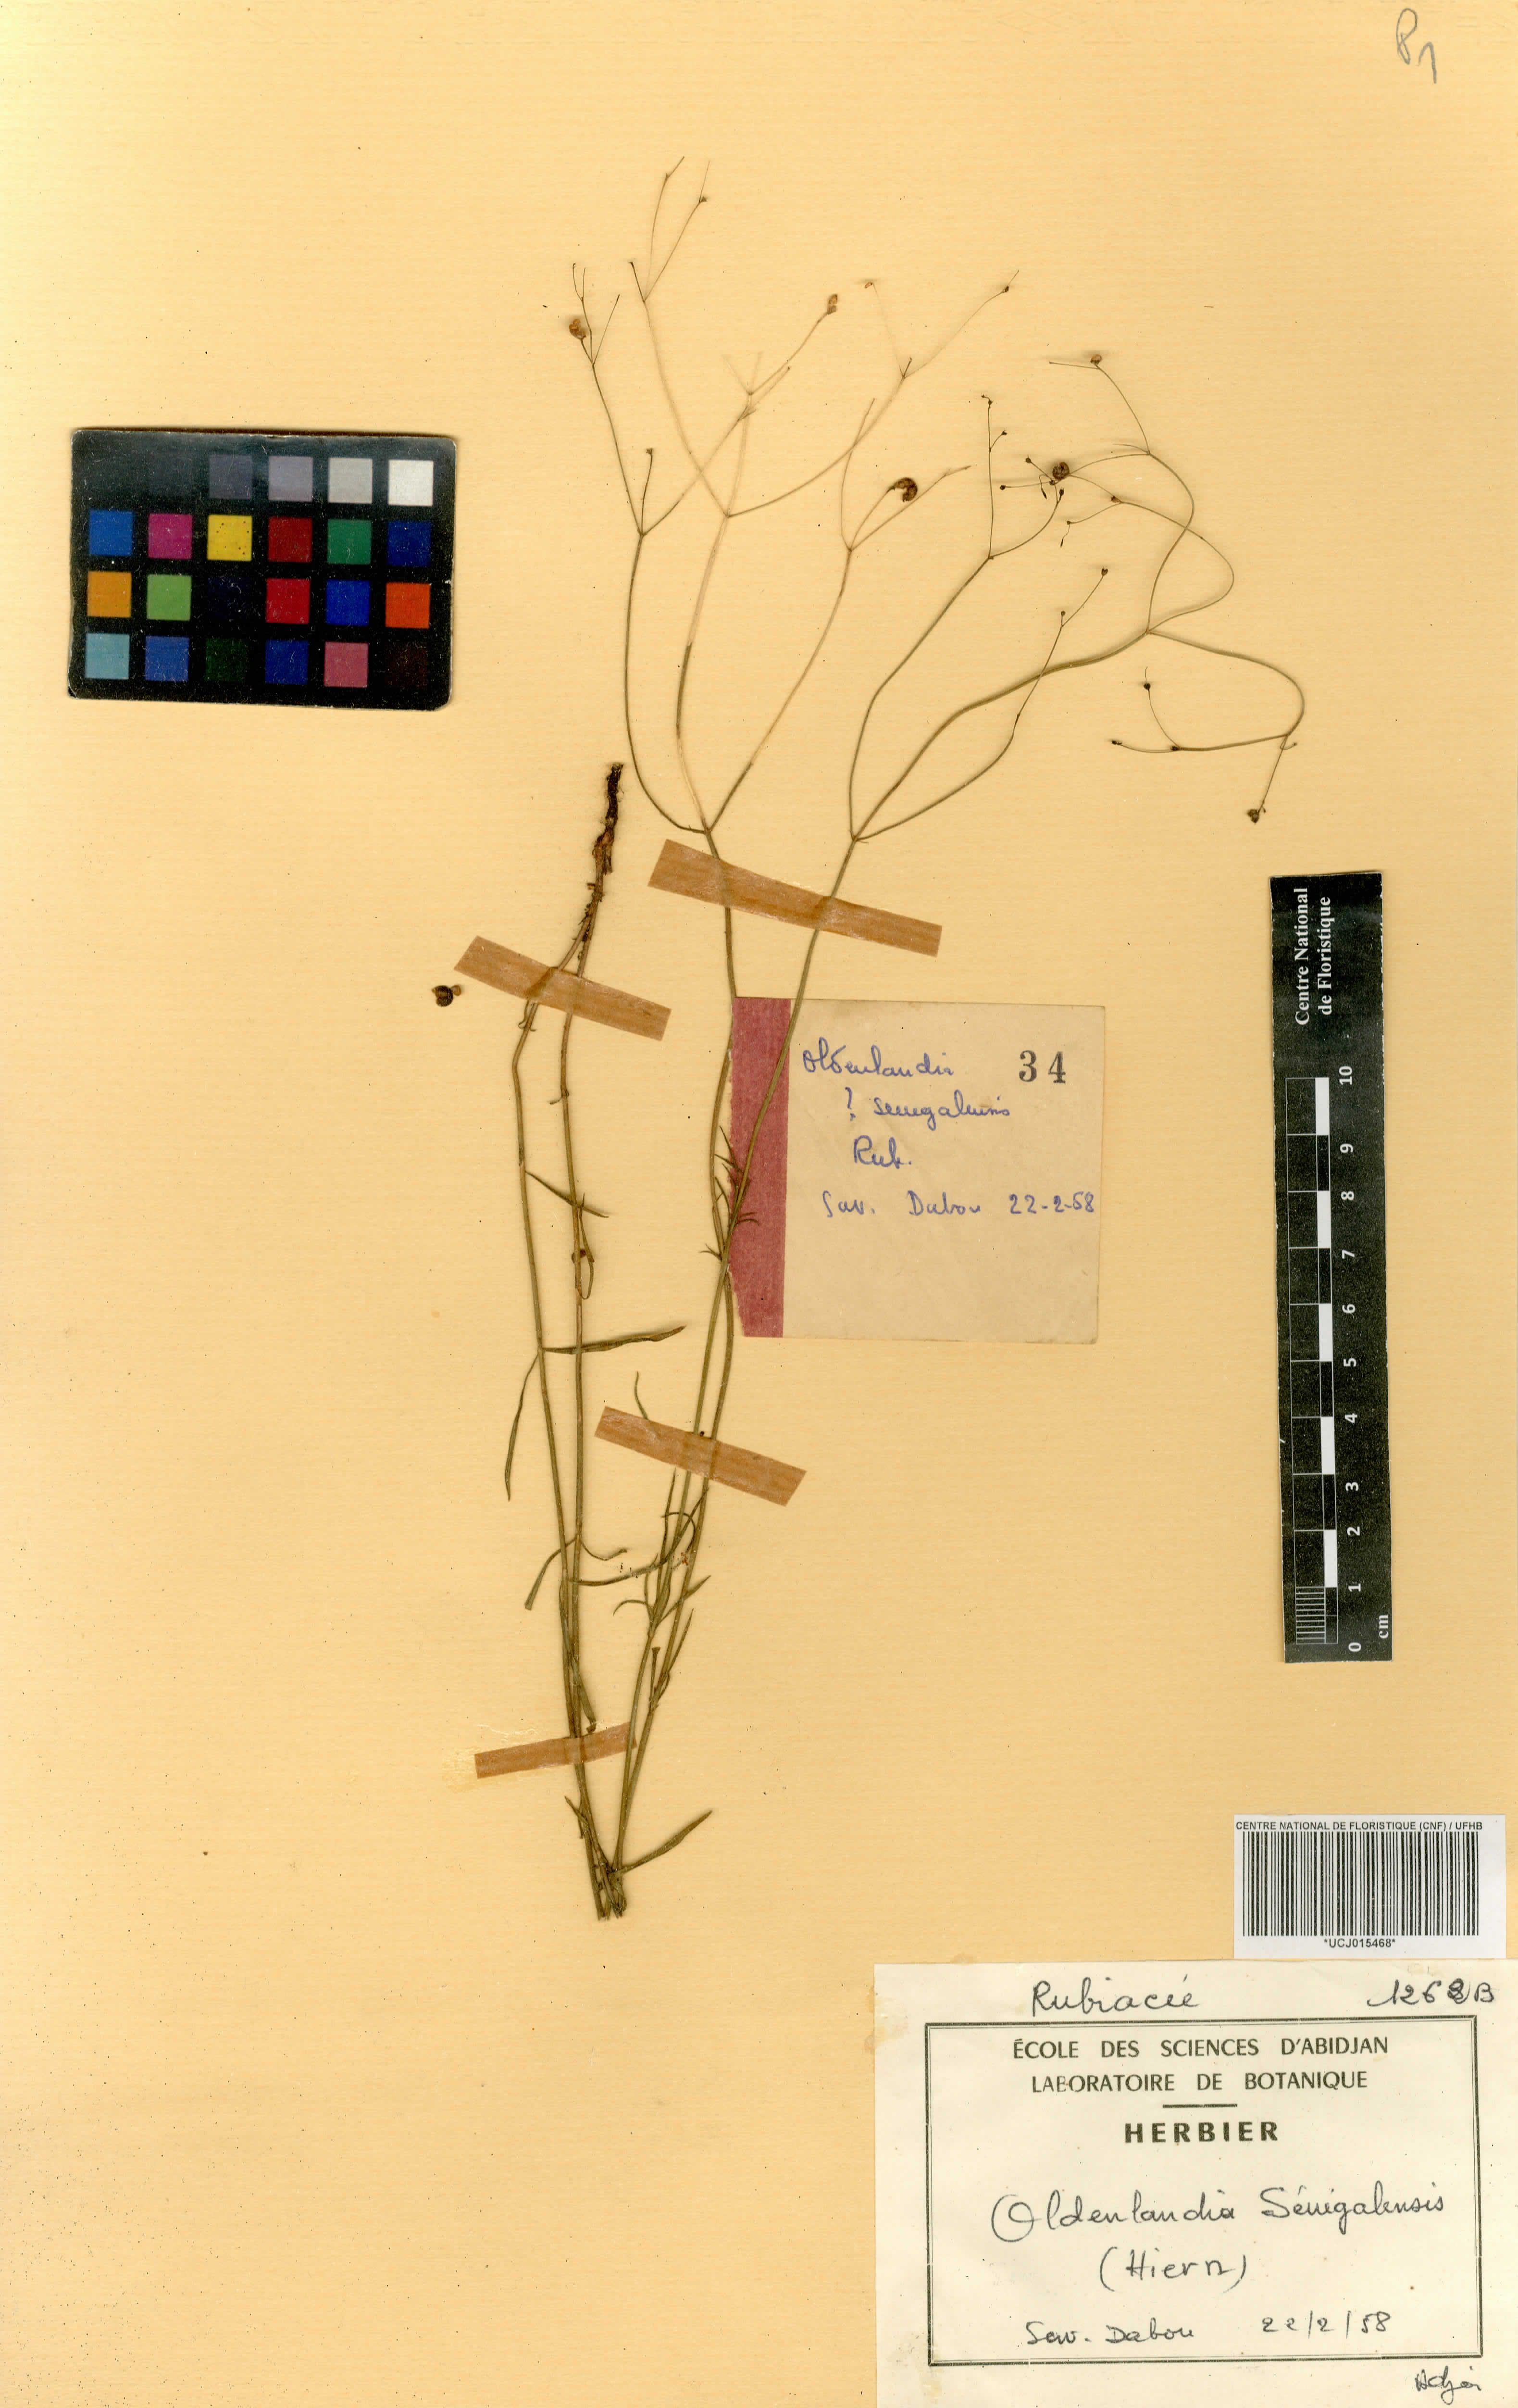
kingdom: Plantae
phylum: Tracheophyta
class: Magnoliopsida
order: Gentianales
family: Rubiaceae
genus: Kohautia
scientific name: Kohautia tenuis
